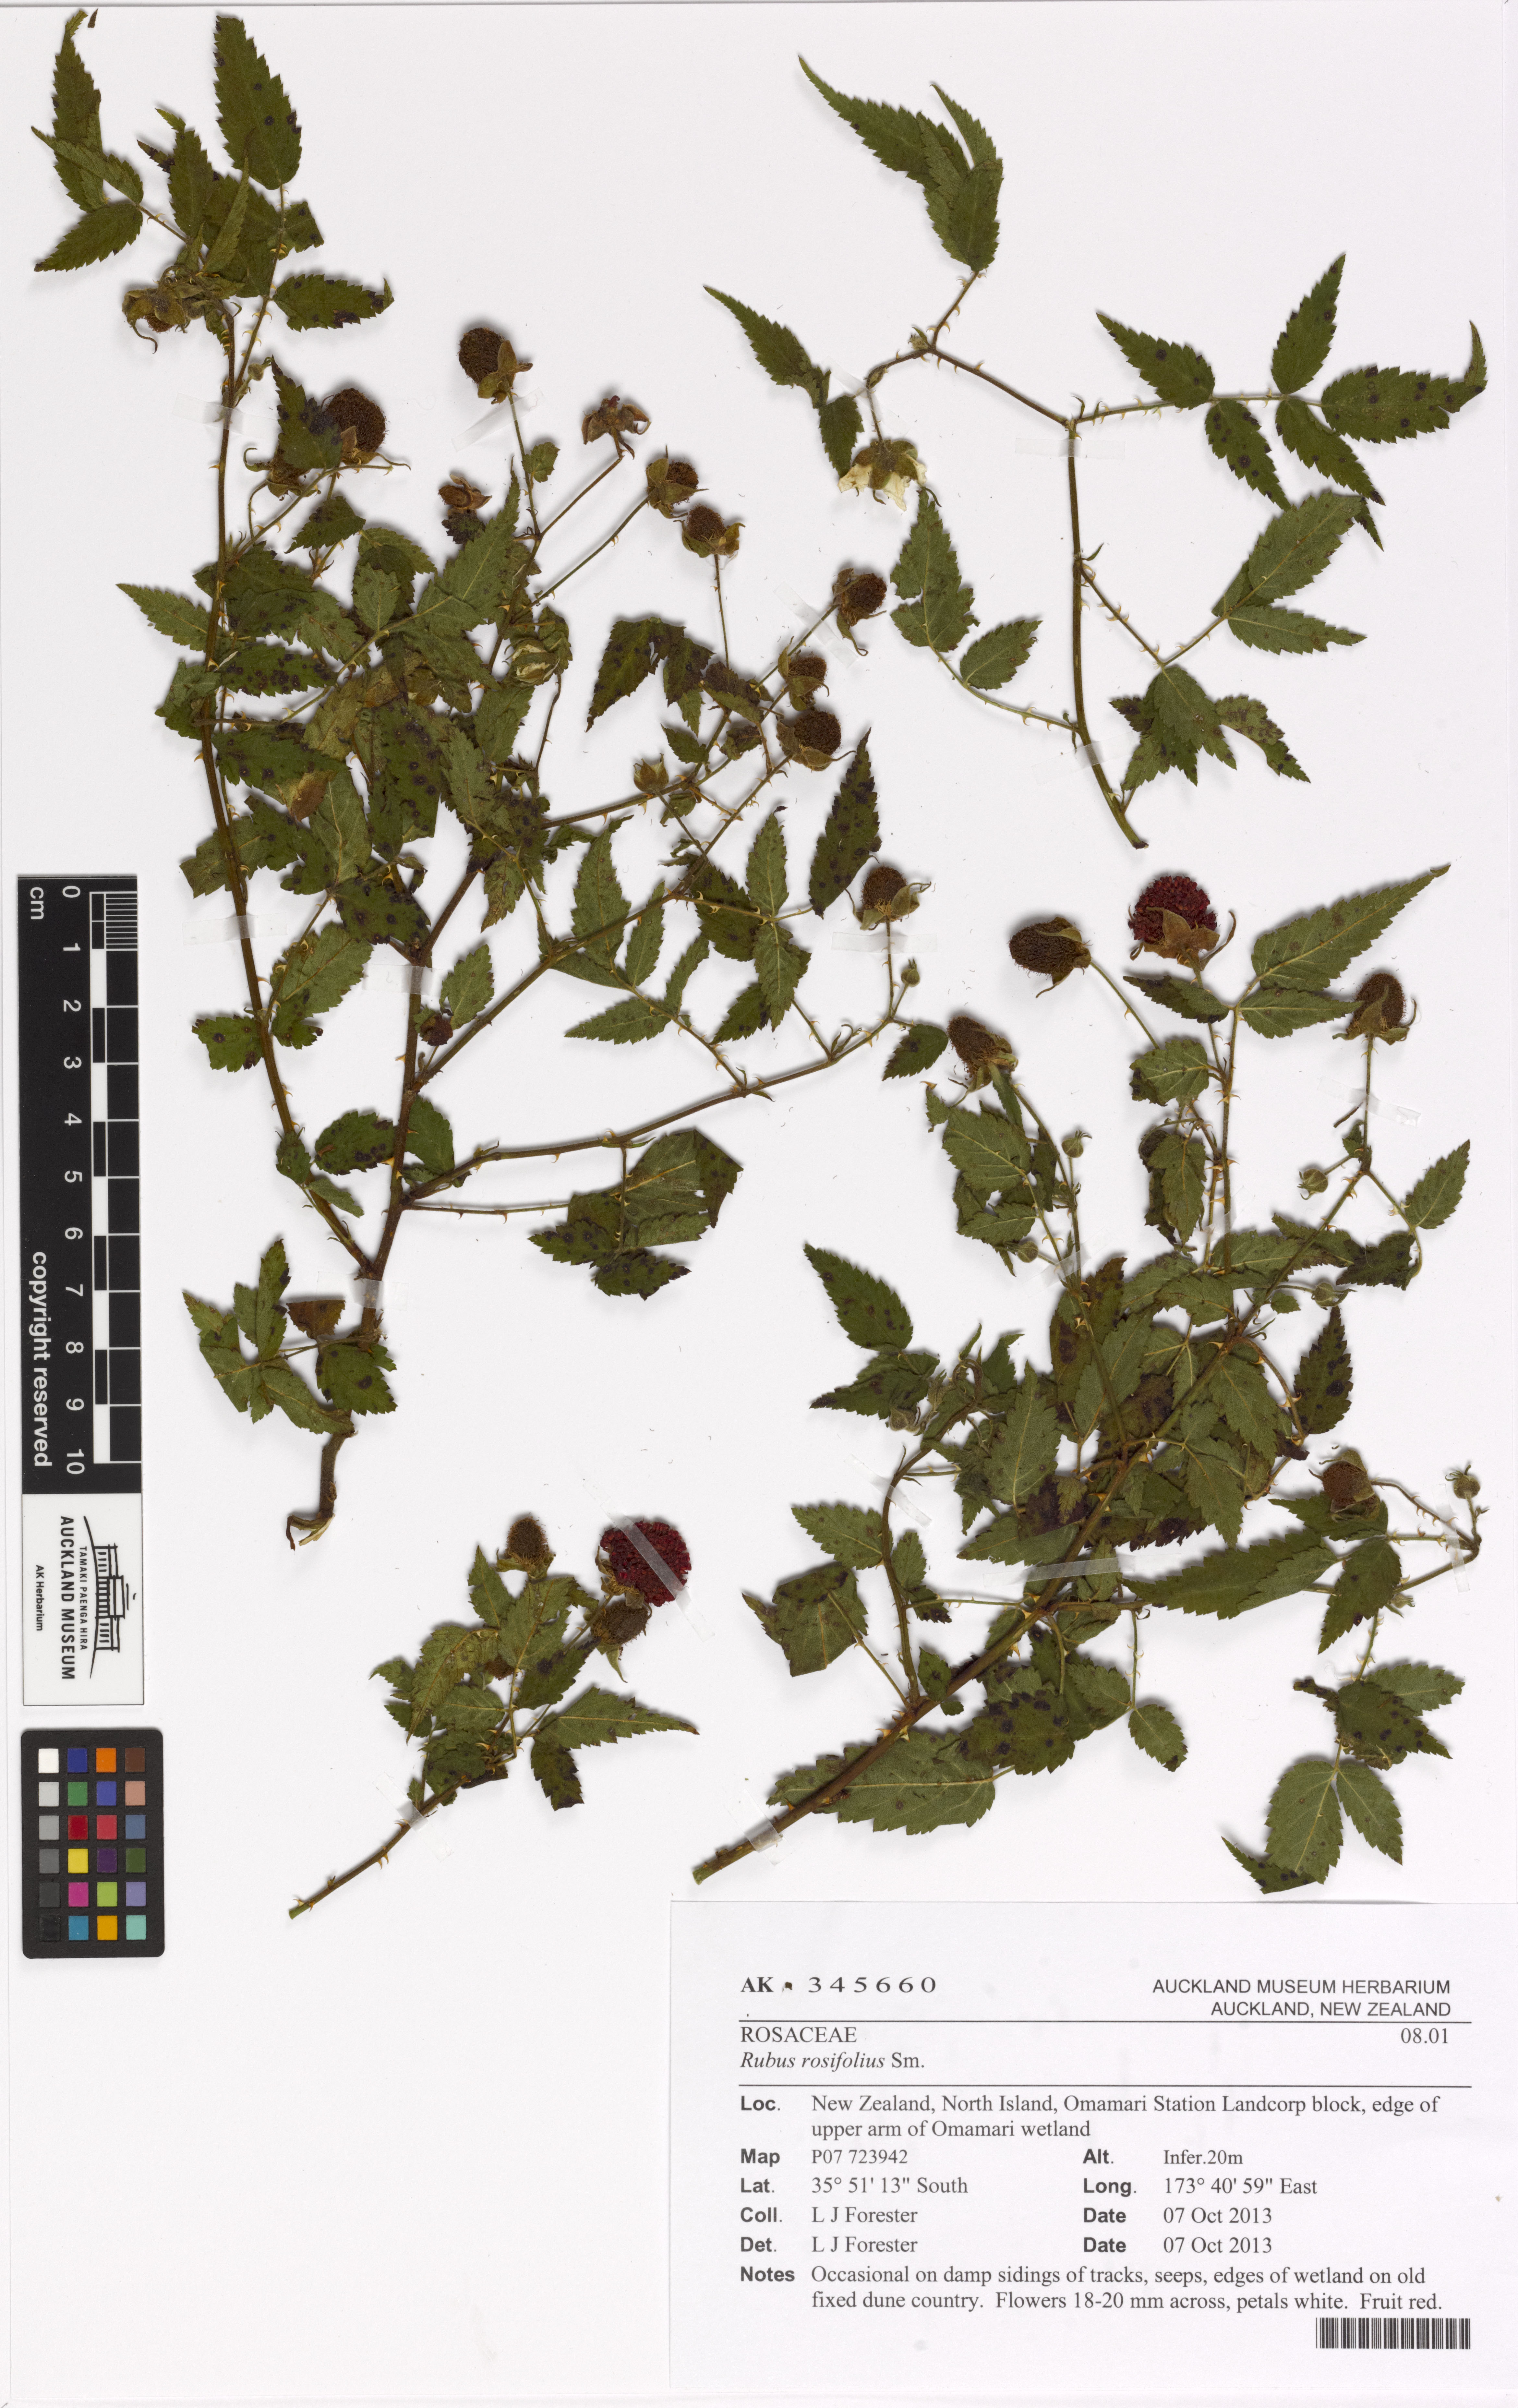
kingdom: Plantae
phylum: Tracheophyta
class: Magnoliopsida
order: Rosales
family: Rosaceae
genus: Rubus
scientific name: Rubus rosifolius
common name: Roseleaf raspberry
